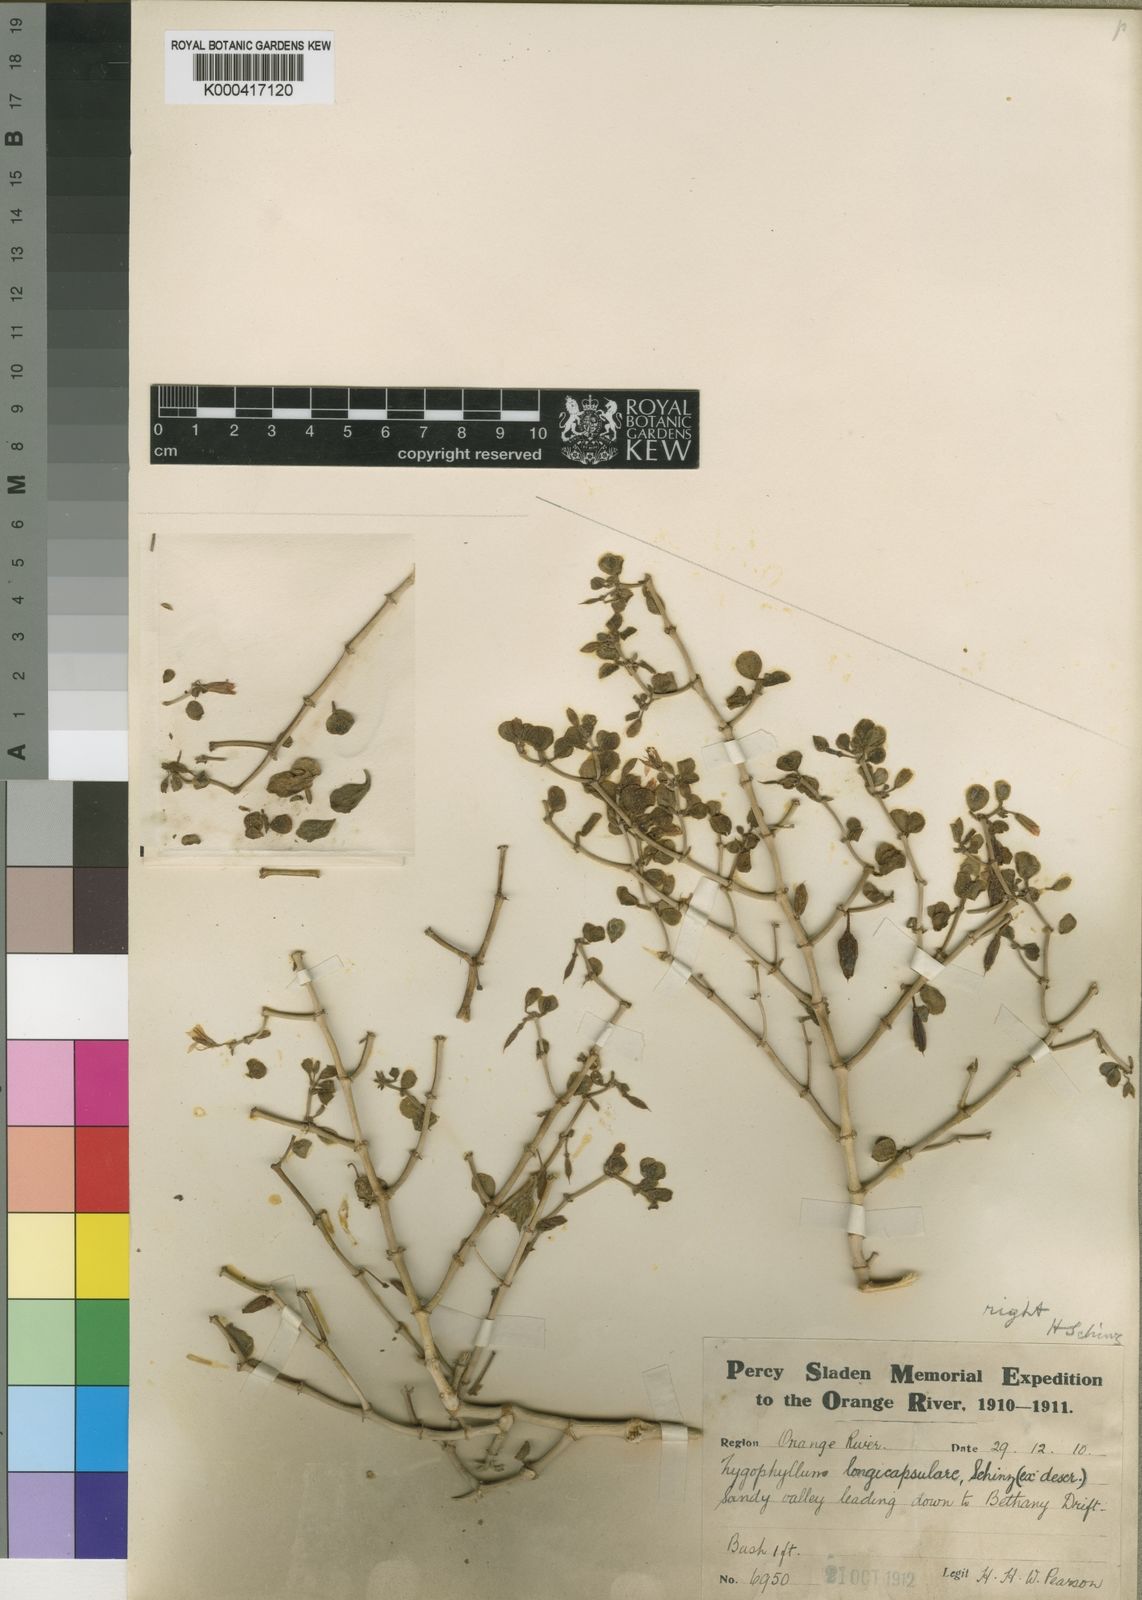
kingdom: Plantae
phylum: Tracheophyta
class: Magnoliopsida
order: Zygophyllales
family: Zygophyllaceae
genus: Tetraena
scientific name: Tetraena longicapsularis
